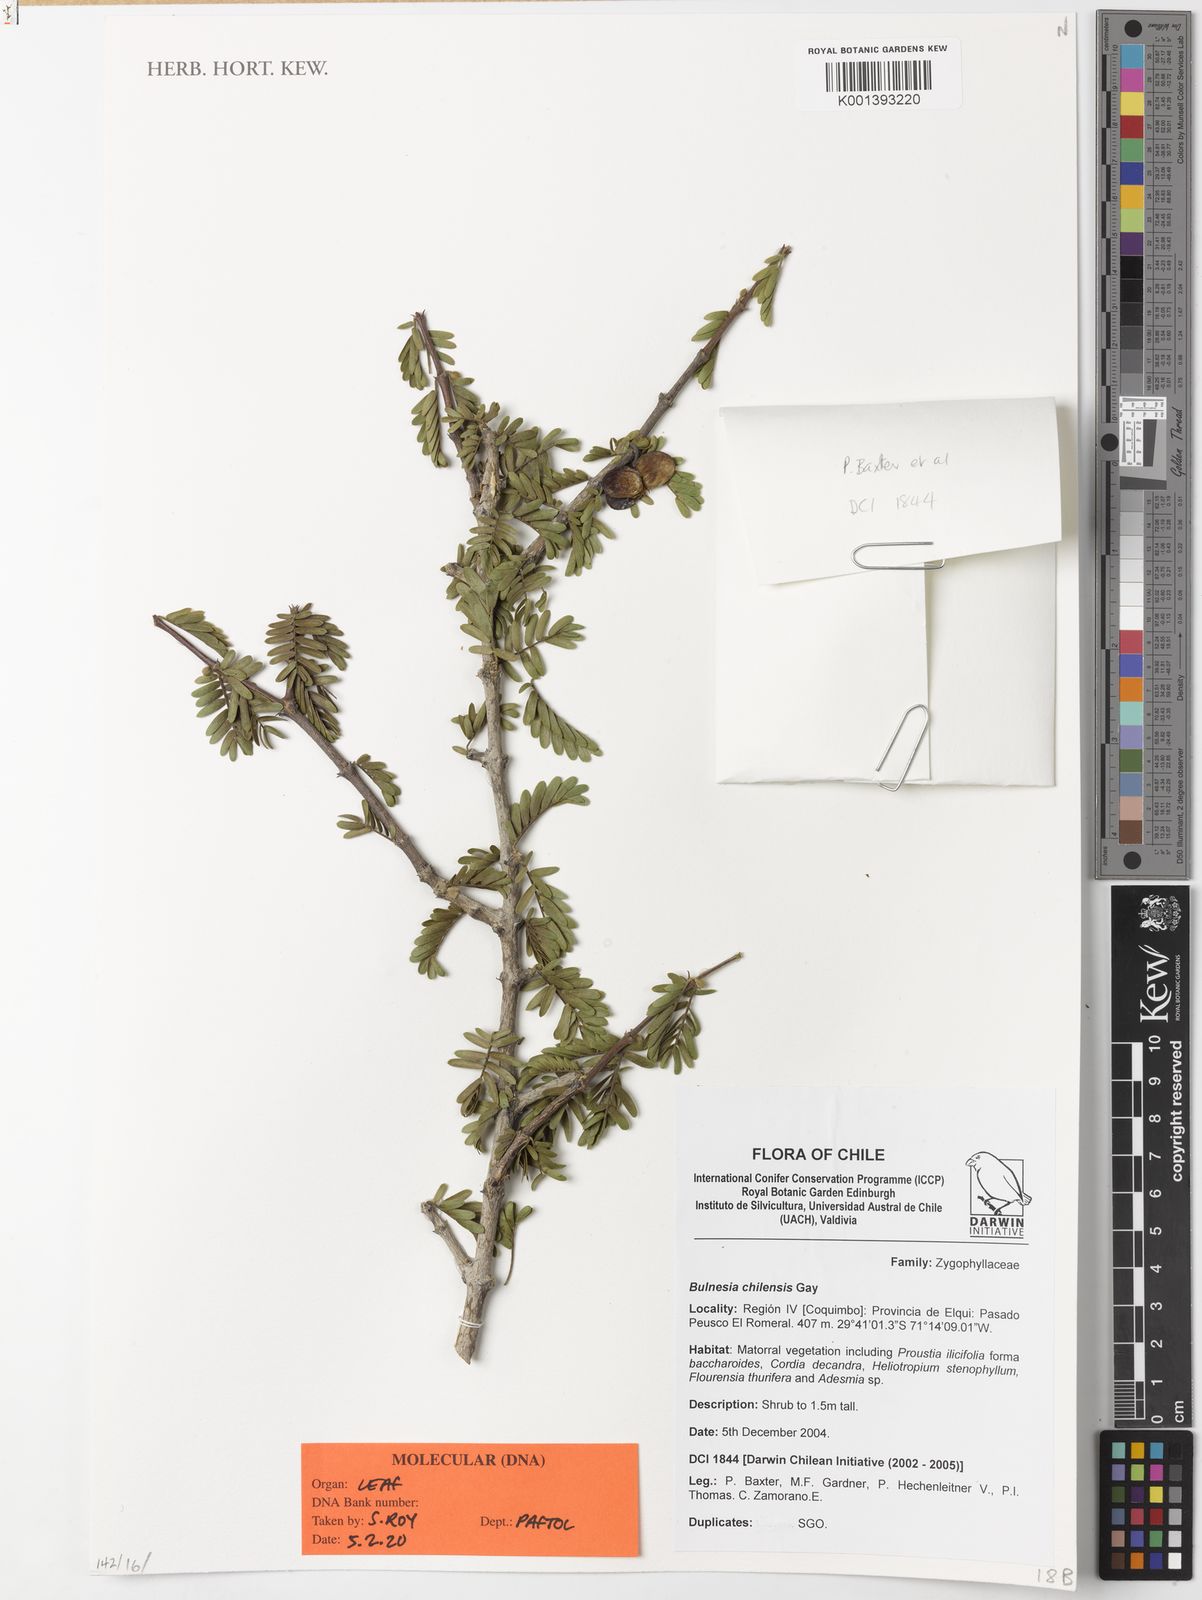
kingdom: Plantae
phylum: Tracheophyta
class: Magnoliopsida
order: Zygophyllales
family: Zygophyllaceae
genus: Bulnesia
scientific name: Bulnesia chilensis
